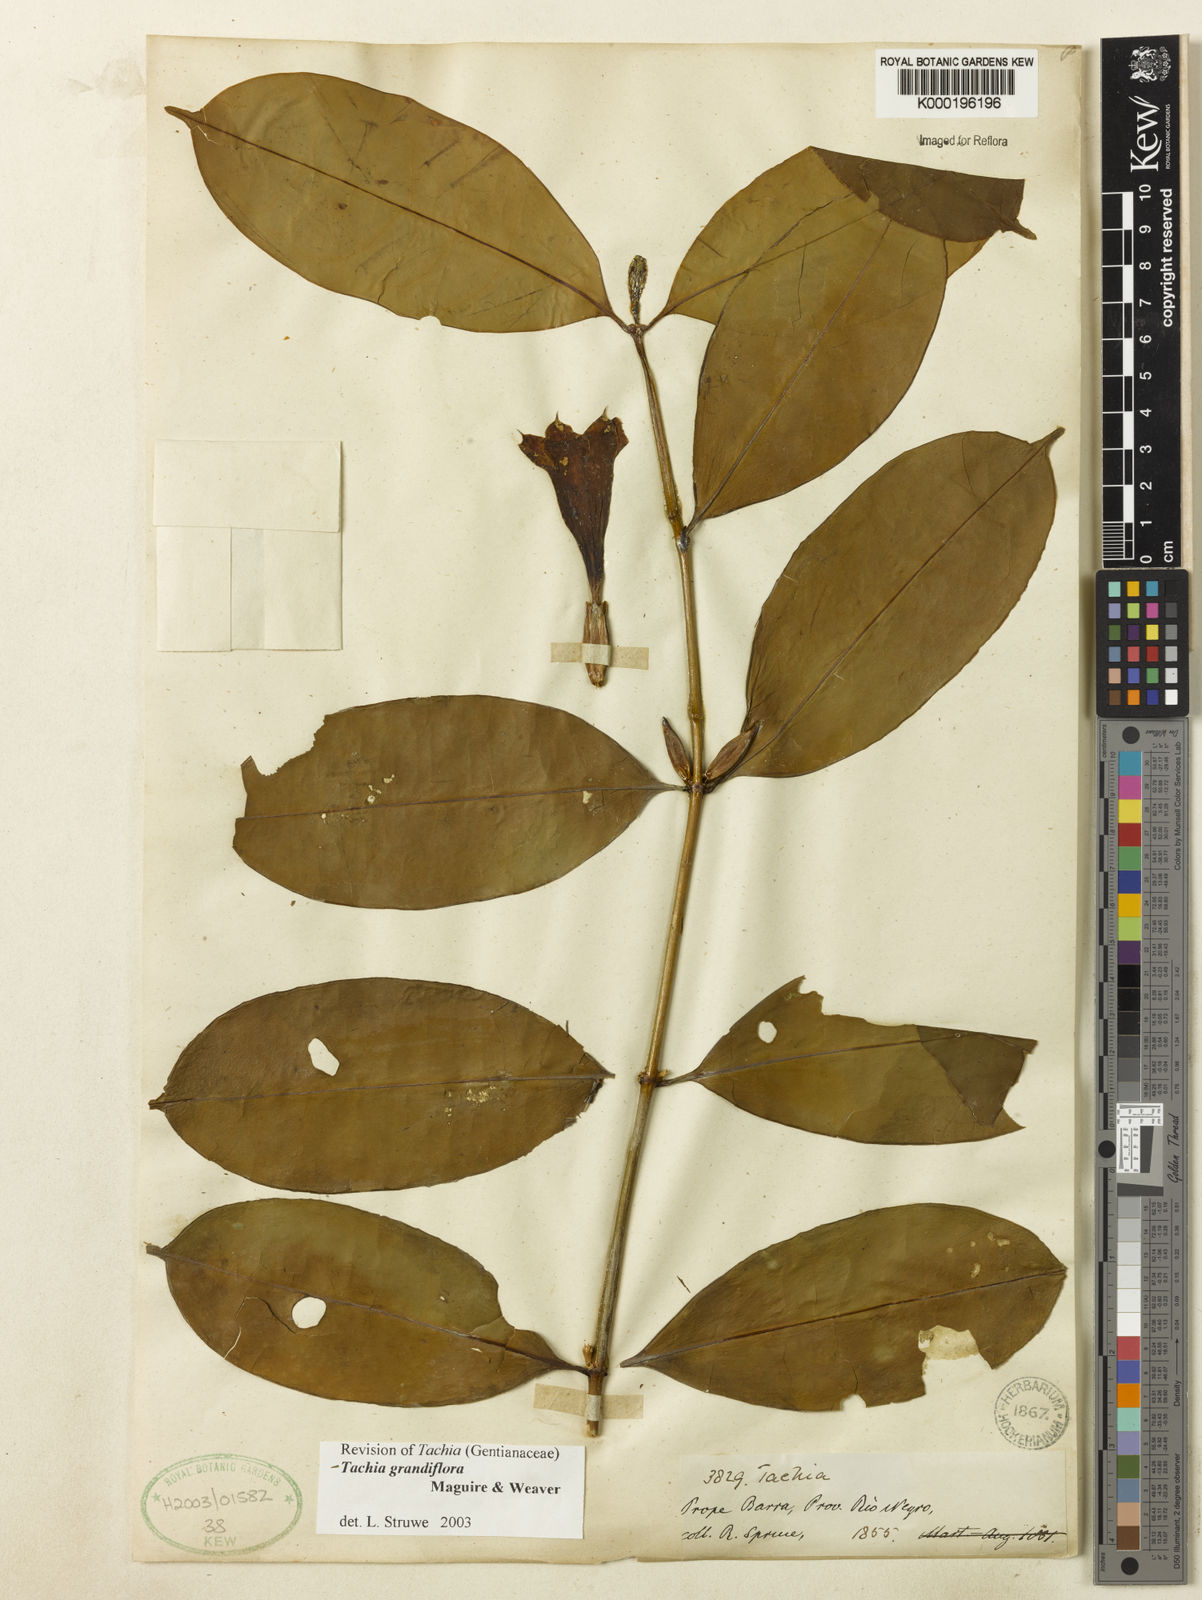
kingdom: Plantae
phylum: Tracheophyta
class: Magnoliopsida
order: Gentianales
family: Gentianaceae
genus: Tachia
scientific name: Tachia grandiflora
